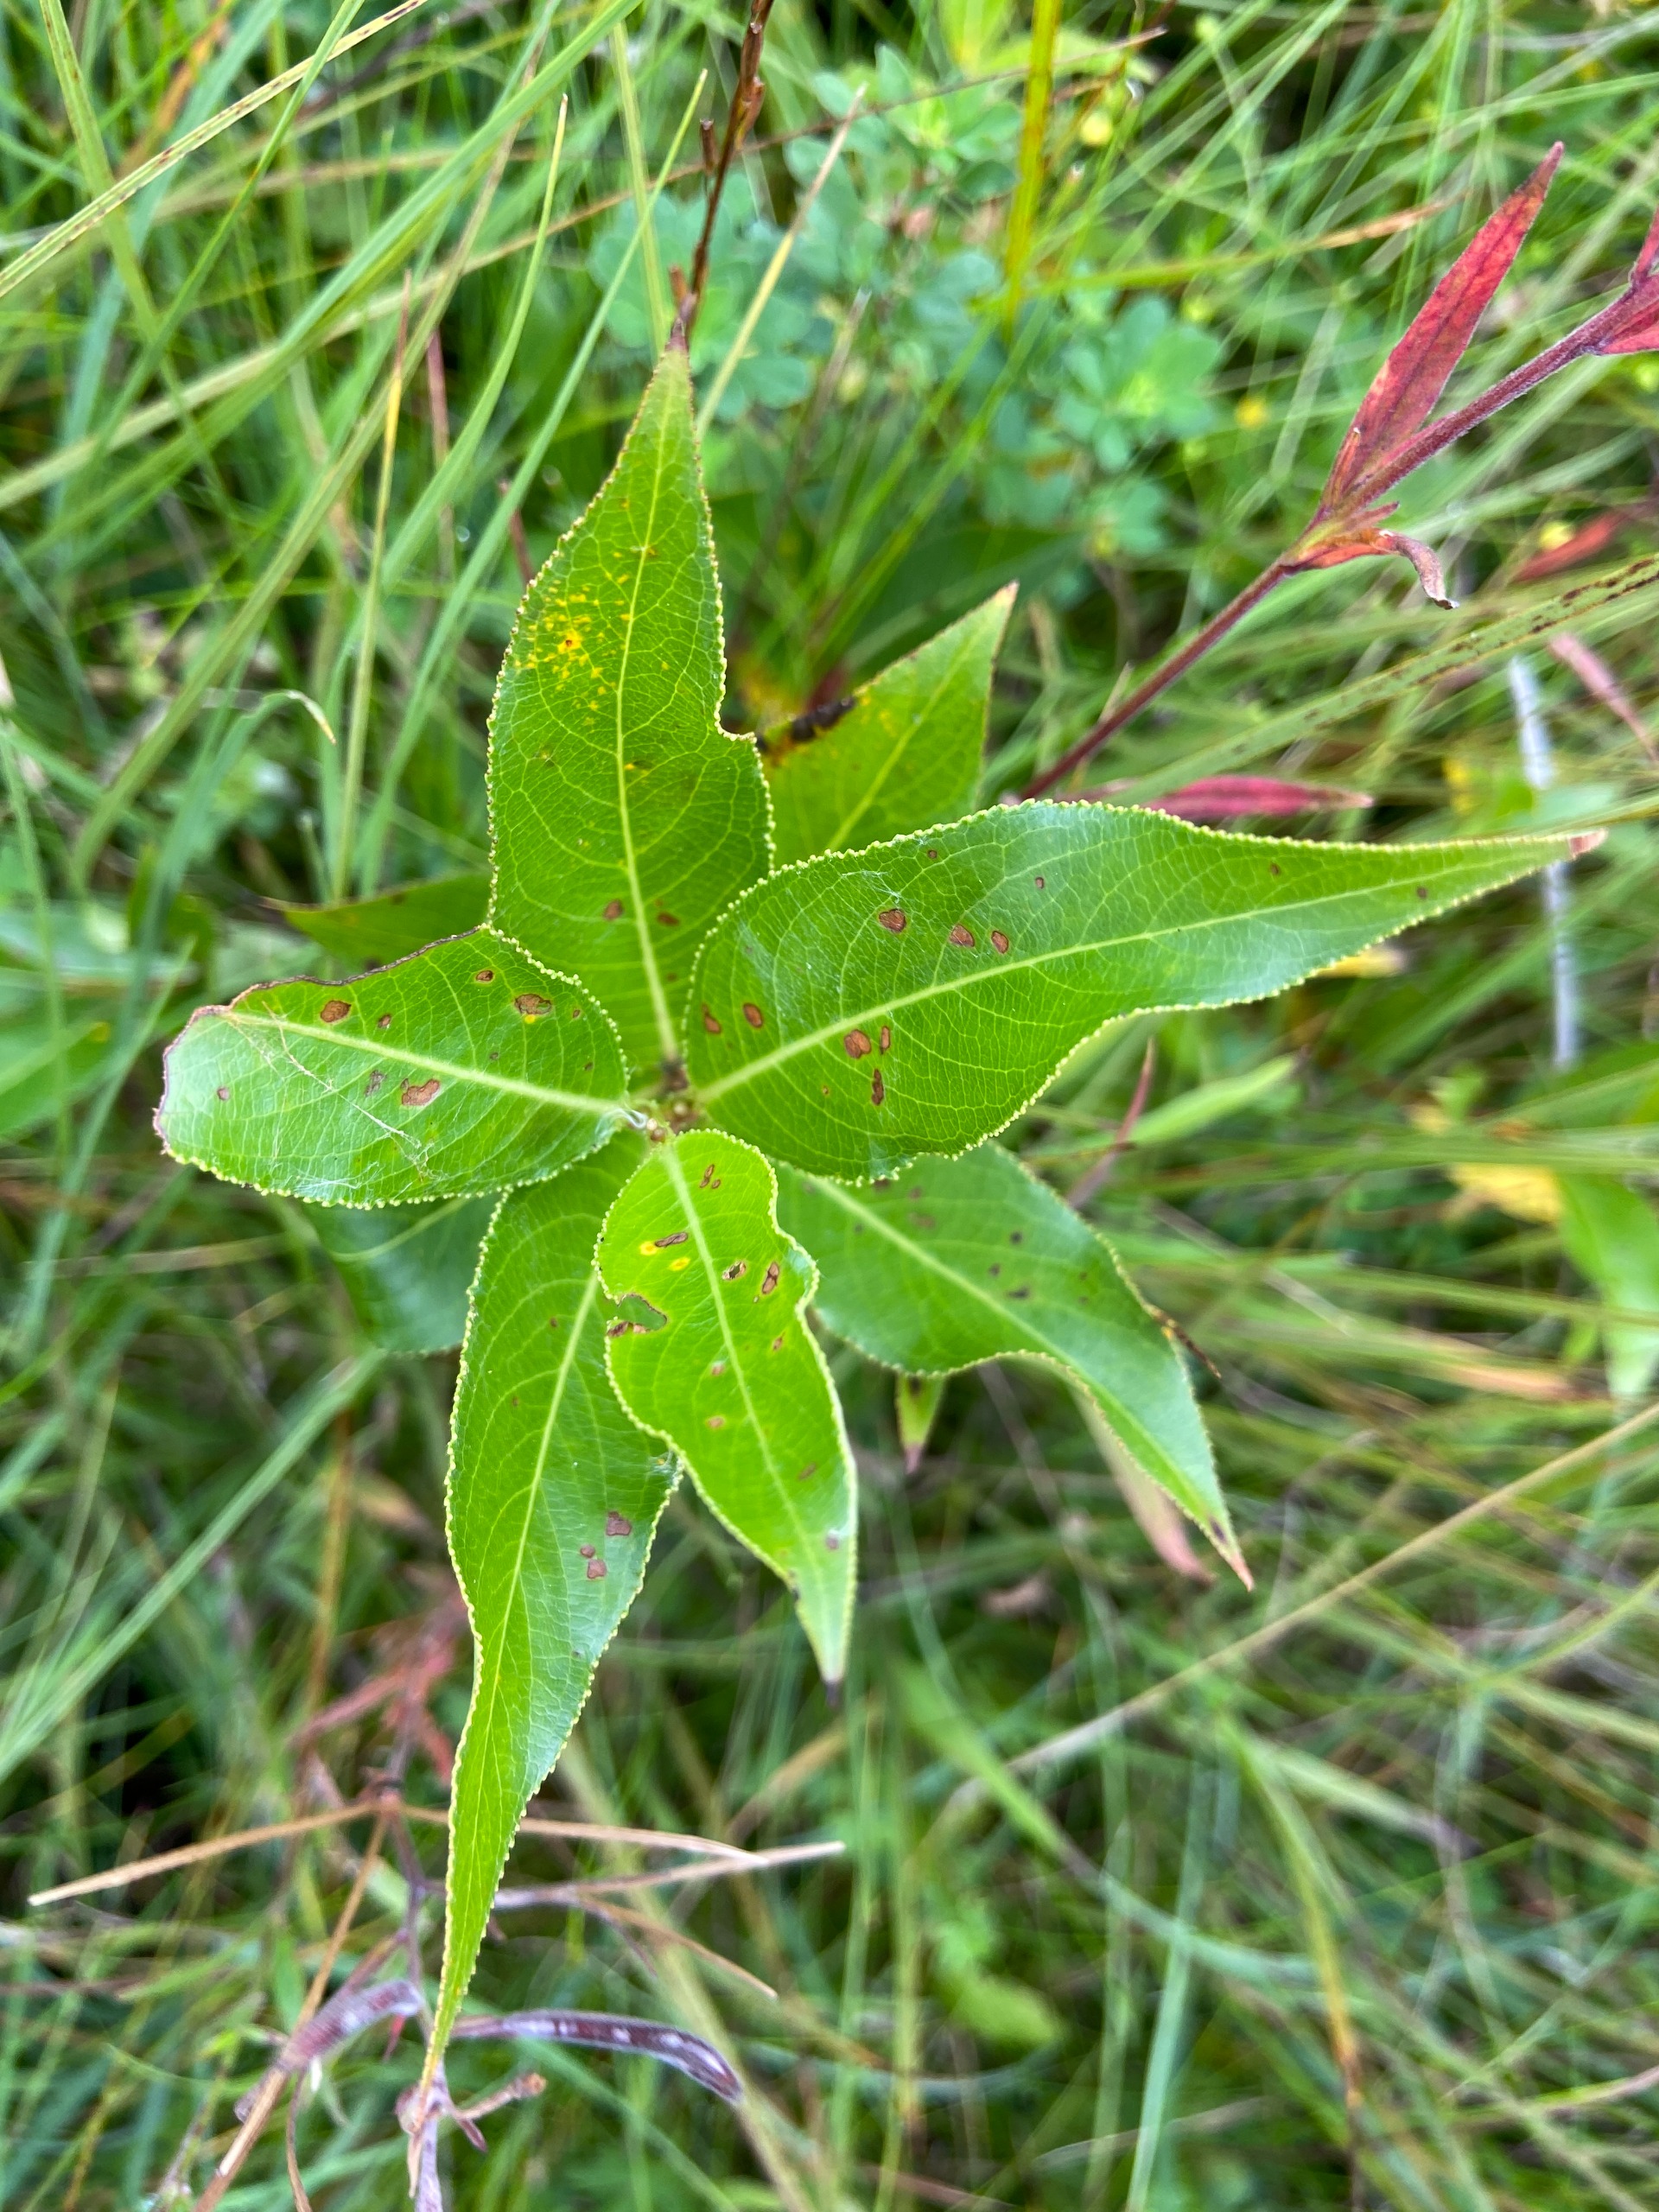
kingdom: Plantae
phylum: Tracheophyta
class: Magnoliopsida
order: Malpighiales
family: Salicaceae
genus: Salix
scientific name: Salix pentandra
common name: Femhannet pil
